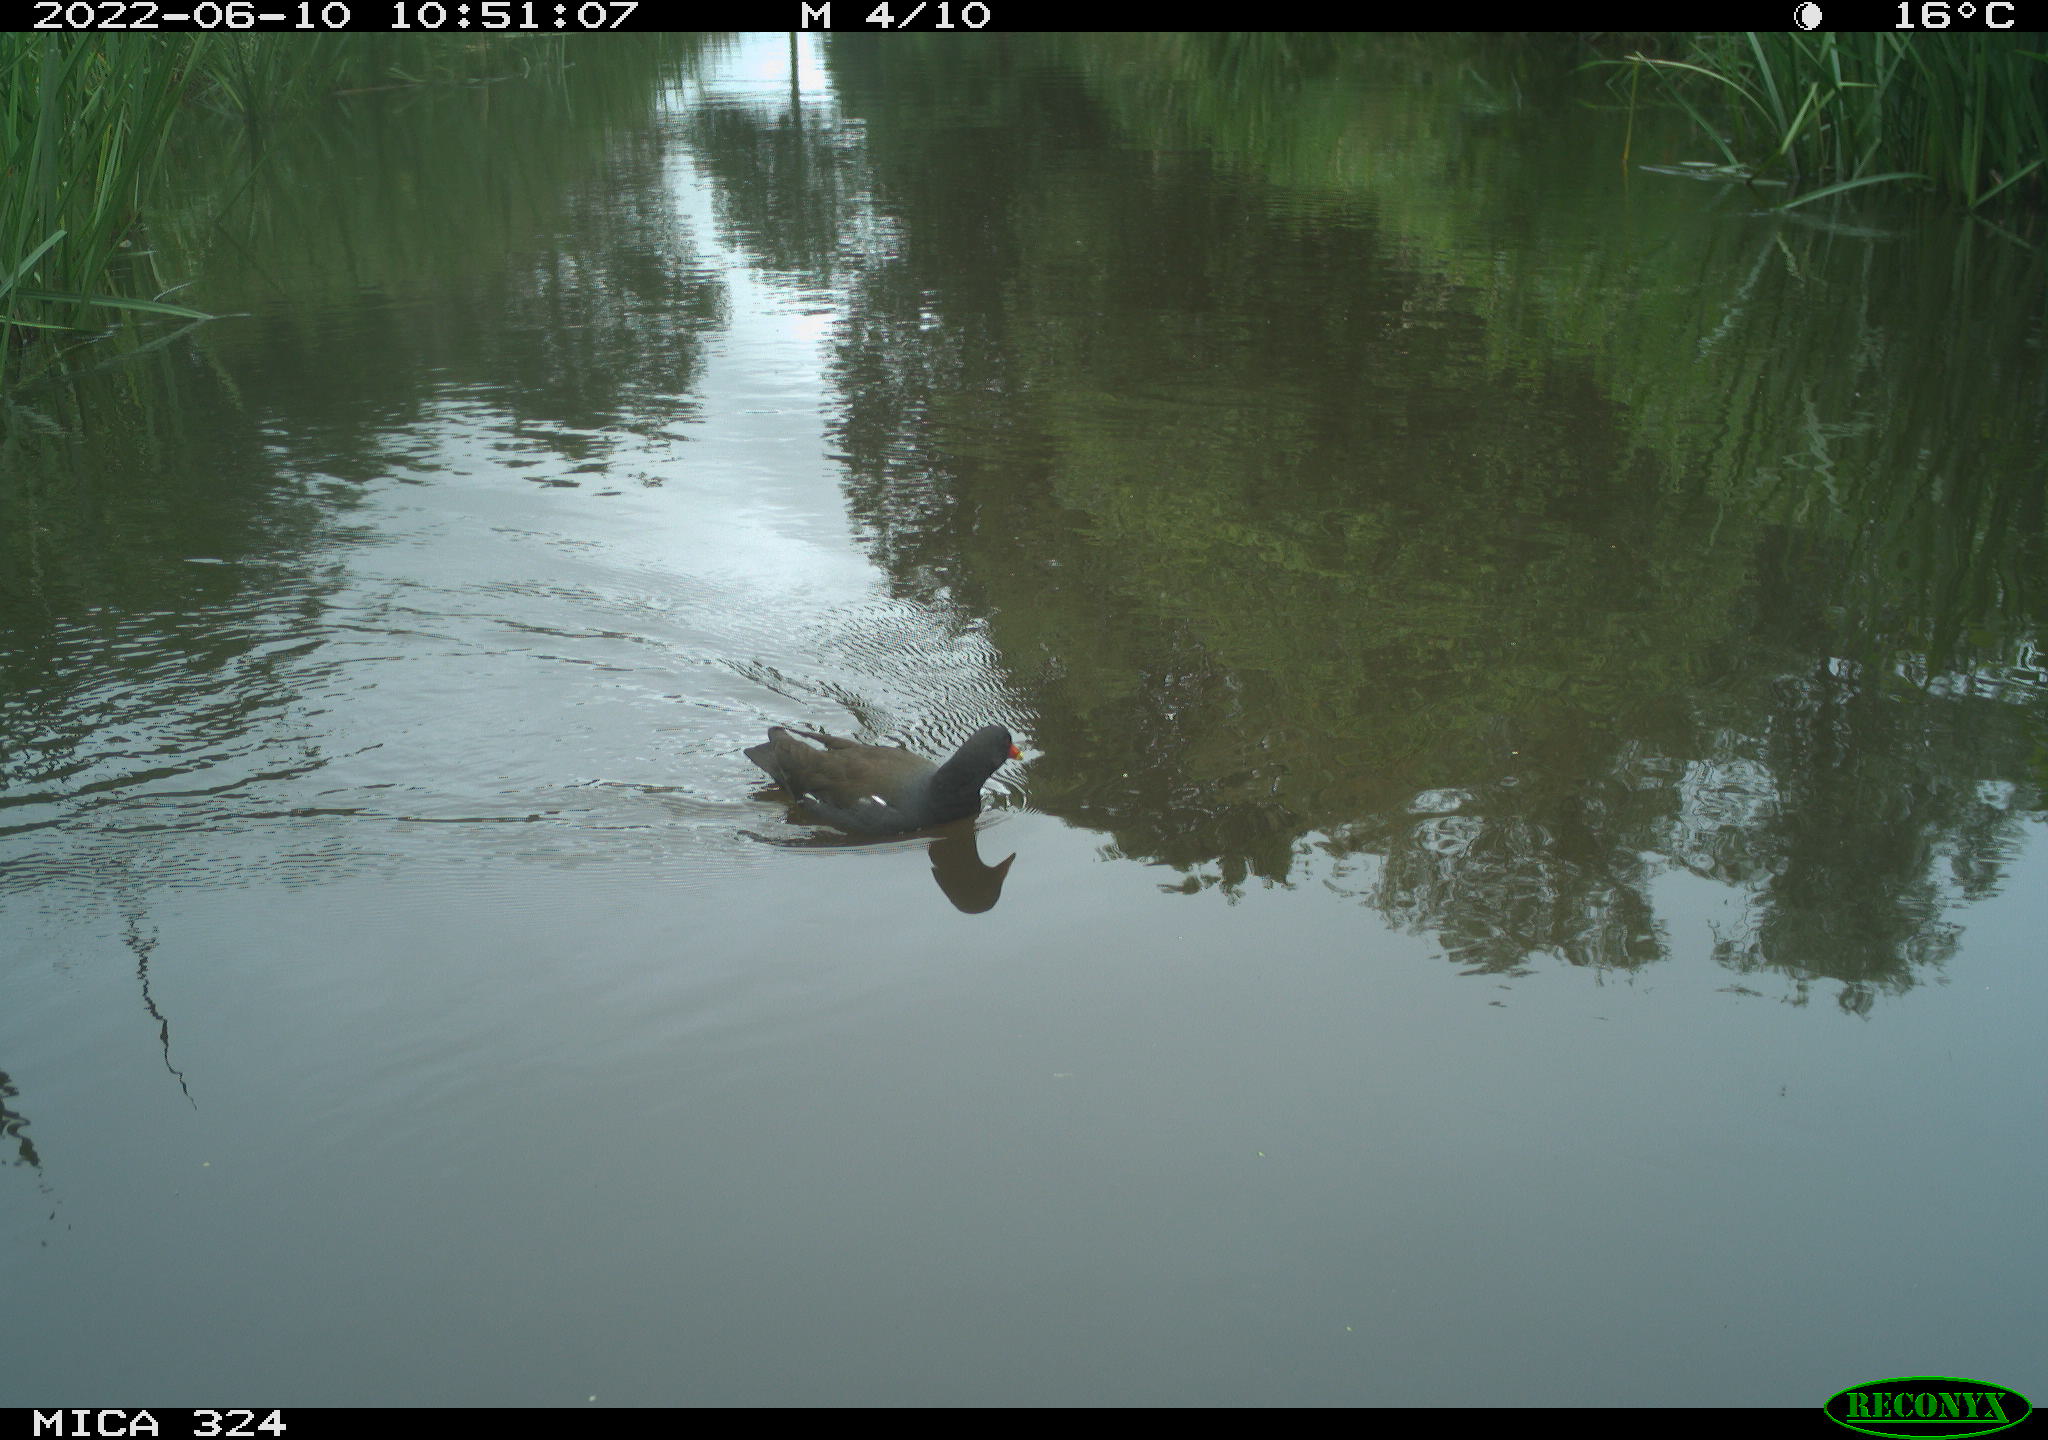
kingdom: Animalia
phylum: Chordata
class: Aves
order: Gruiformes
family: Rallidae
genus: Gallinula
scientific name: Gallinula chloropus
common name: Common moorhen
